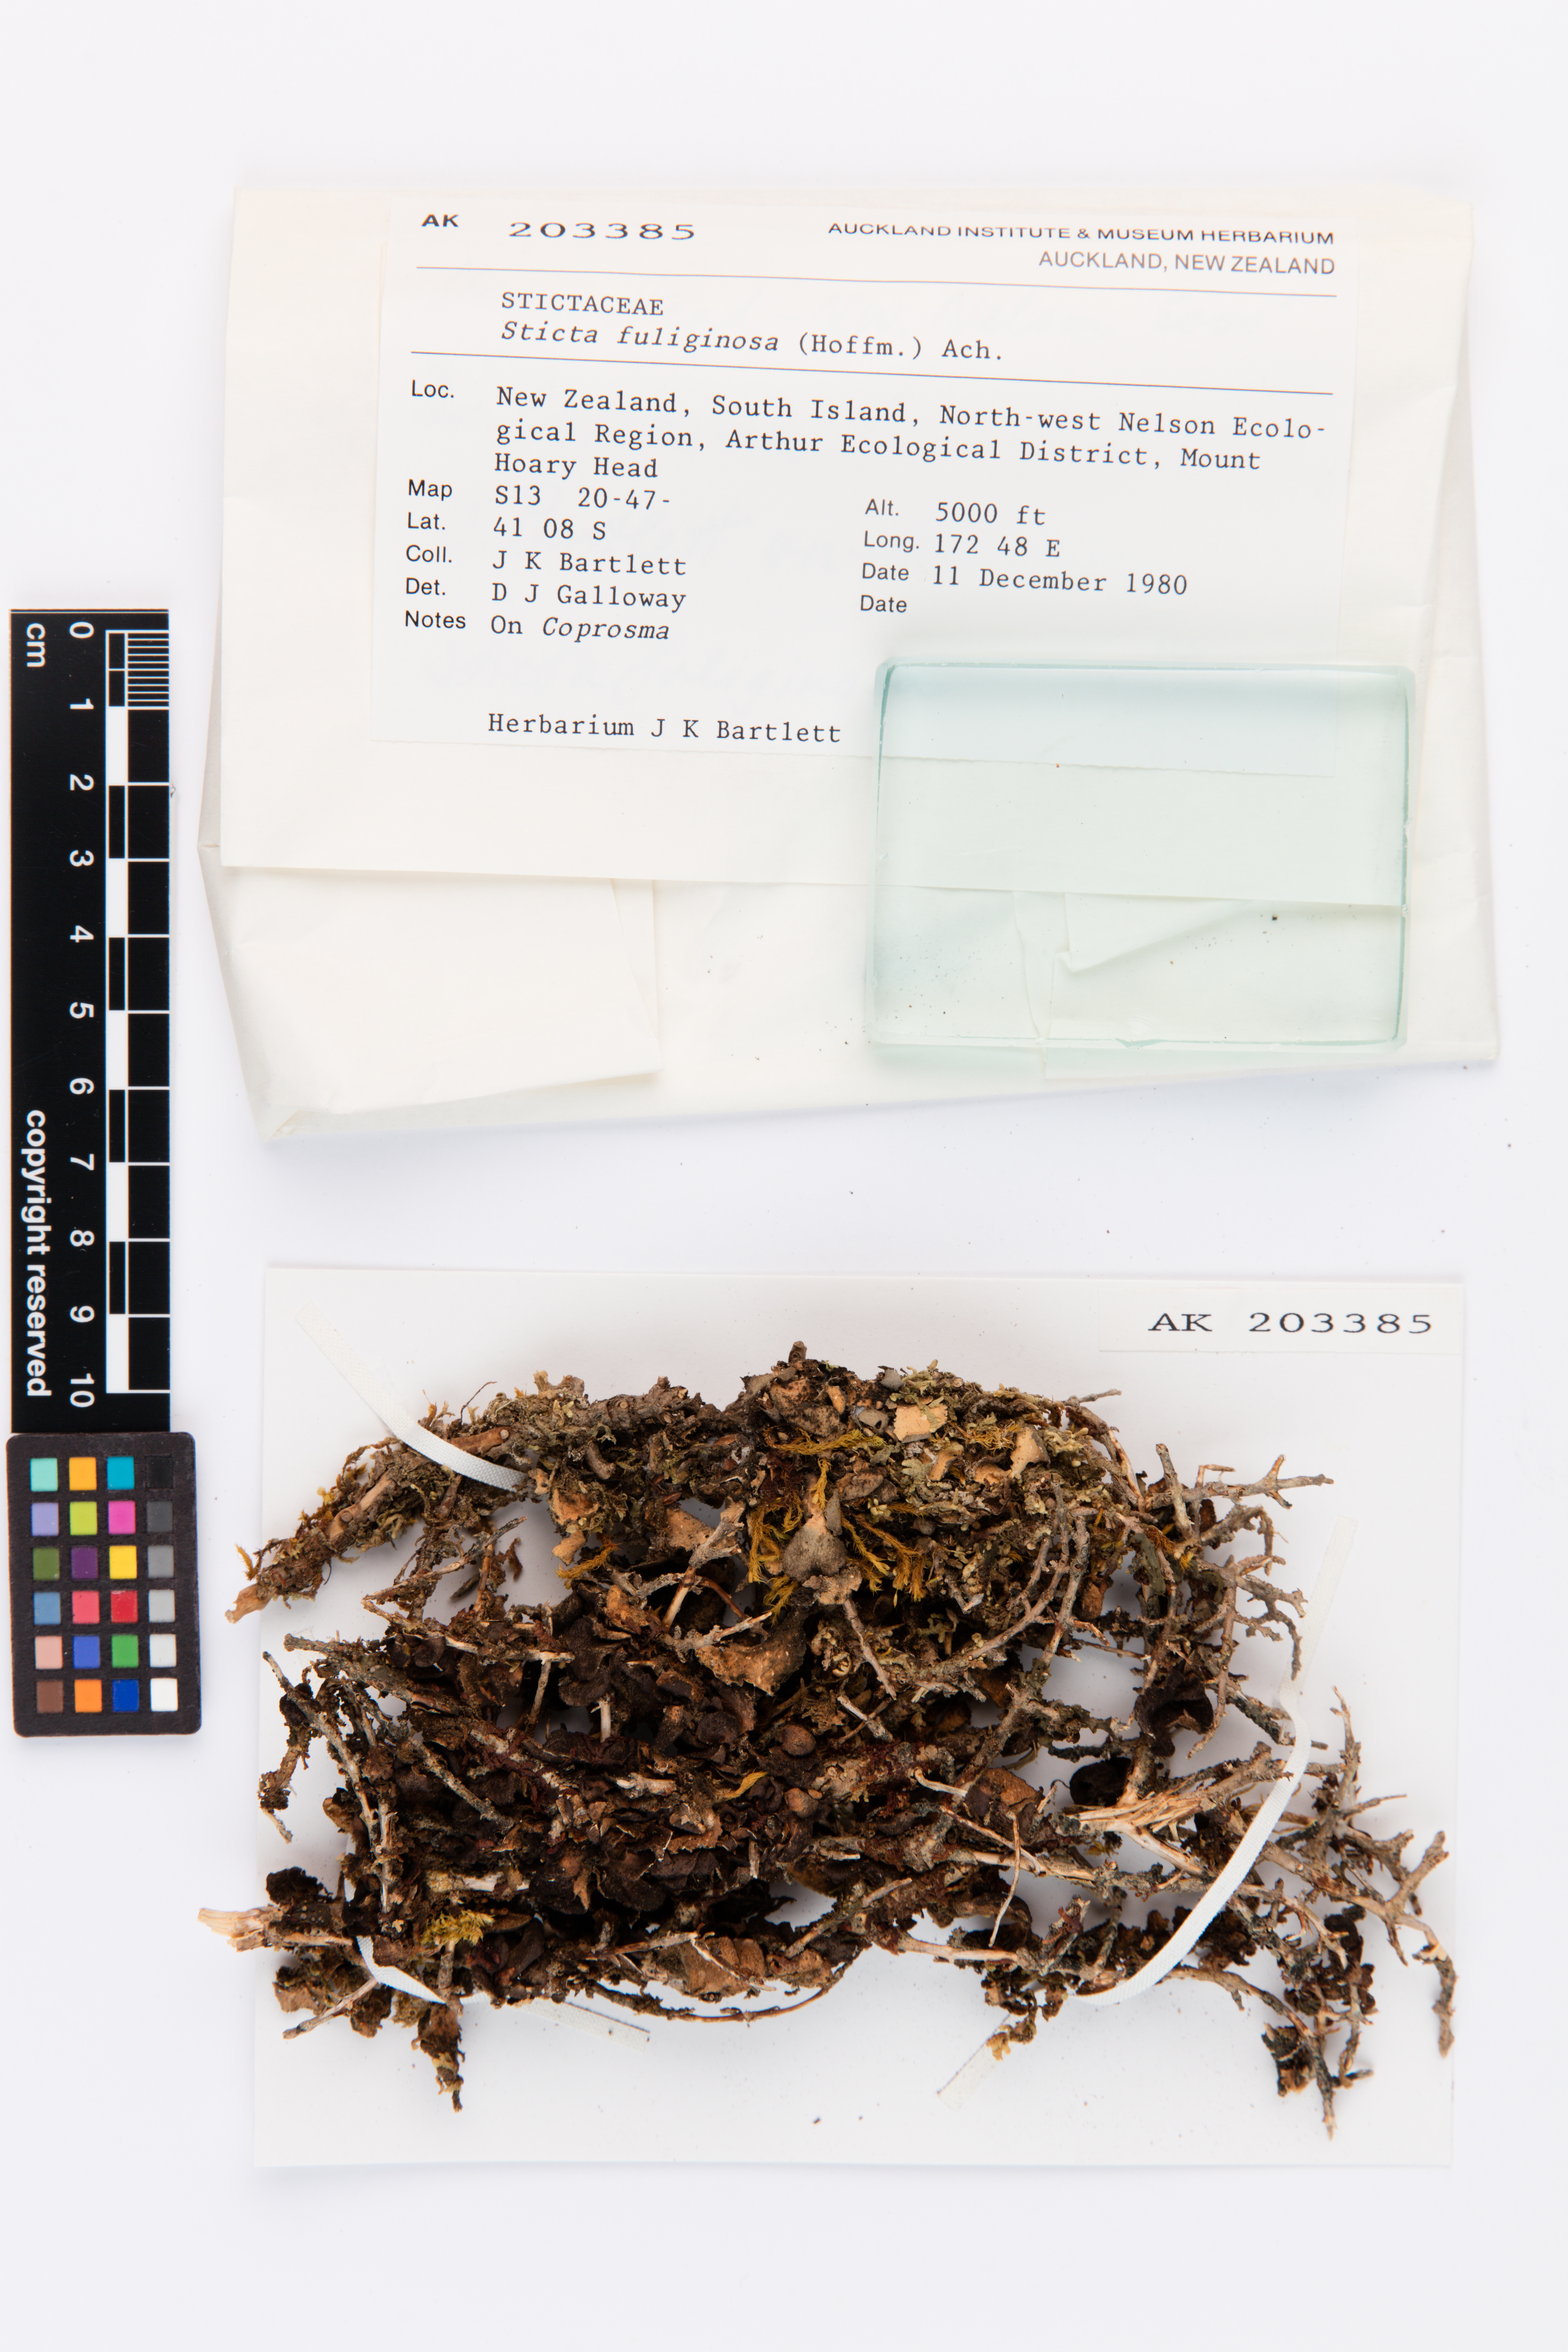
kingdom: Fungi
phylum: Ascomycota
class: Lecanoromycetes
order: Peltigerales
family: Lobariaceae
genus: Sticta
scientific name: Sticta fuliginosa
